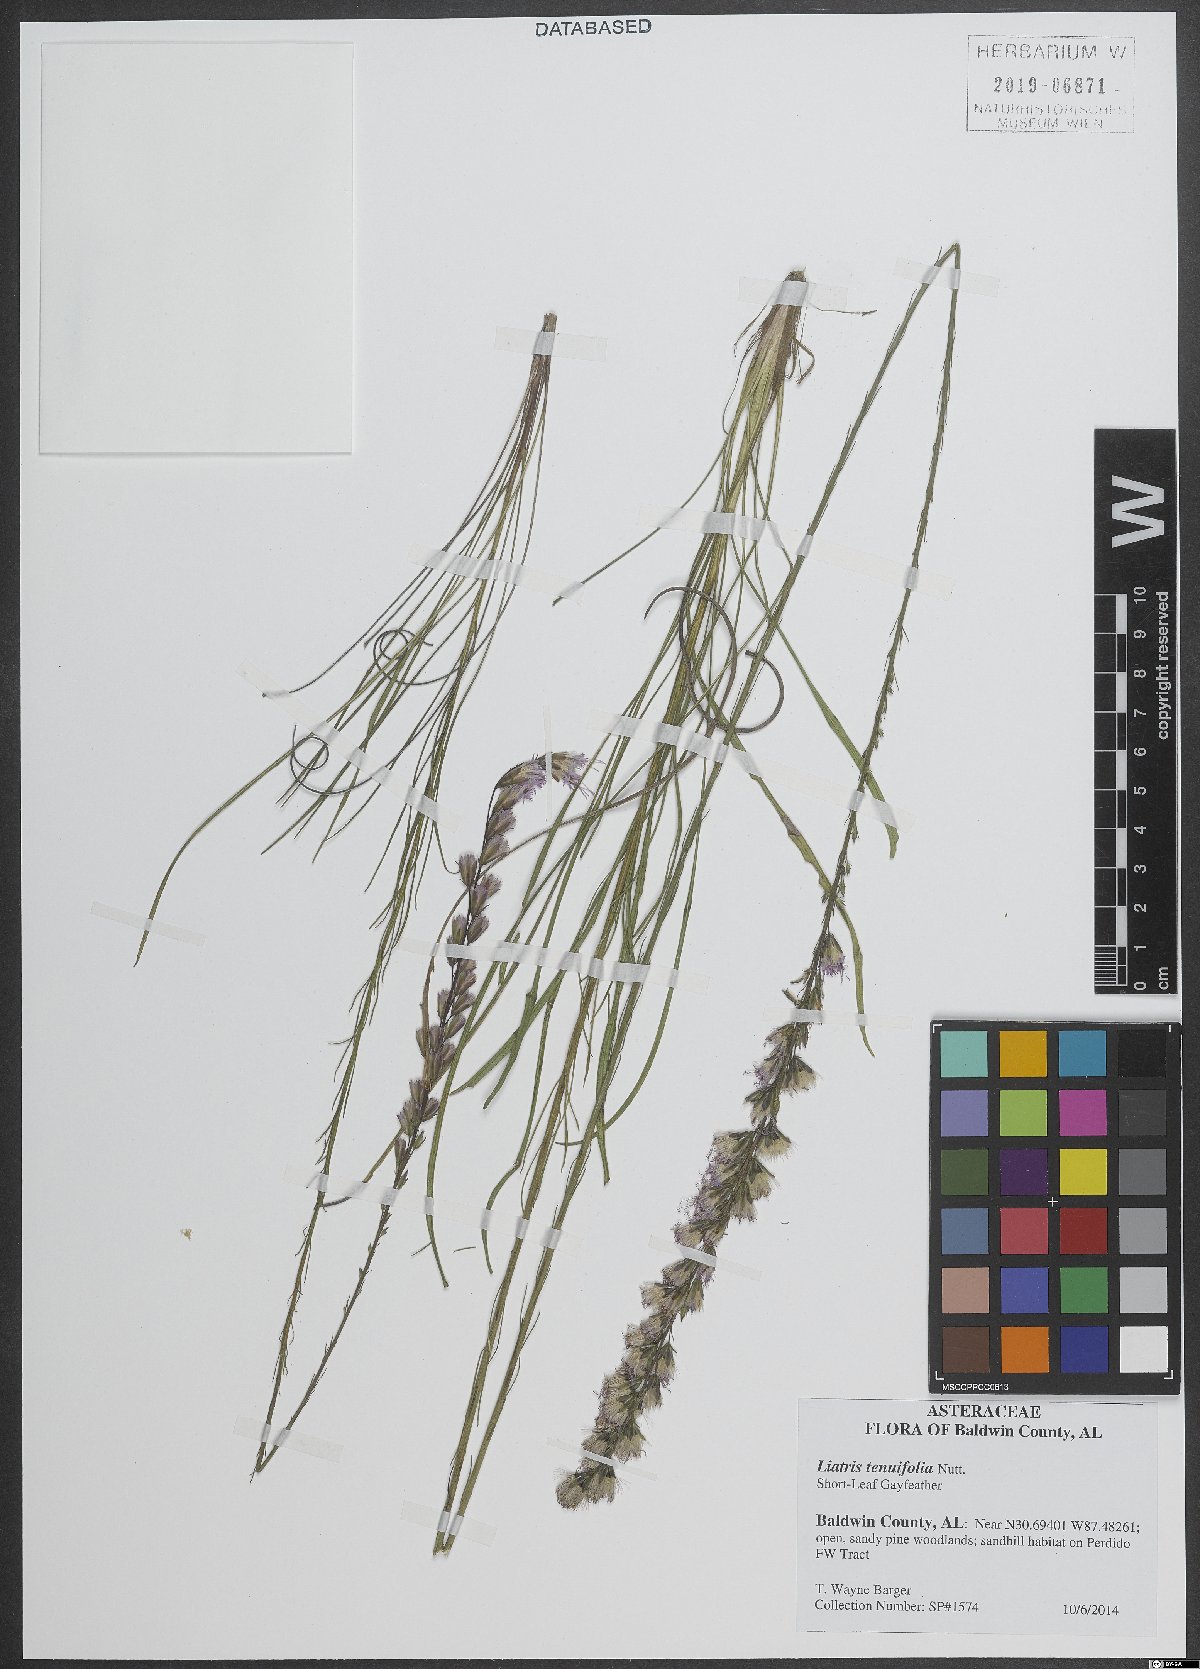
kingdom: Plantae
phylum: Tracheophyta
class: Magnoliopsida
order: Asterales
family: Asteraceae
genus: Liatris
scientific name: Liatris tenuifolia
